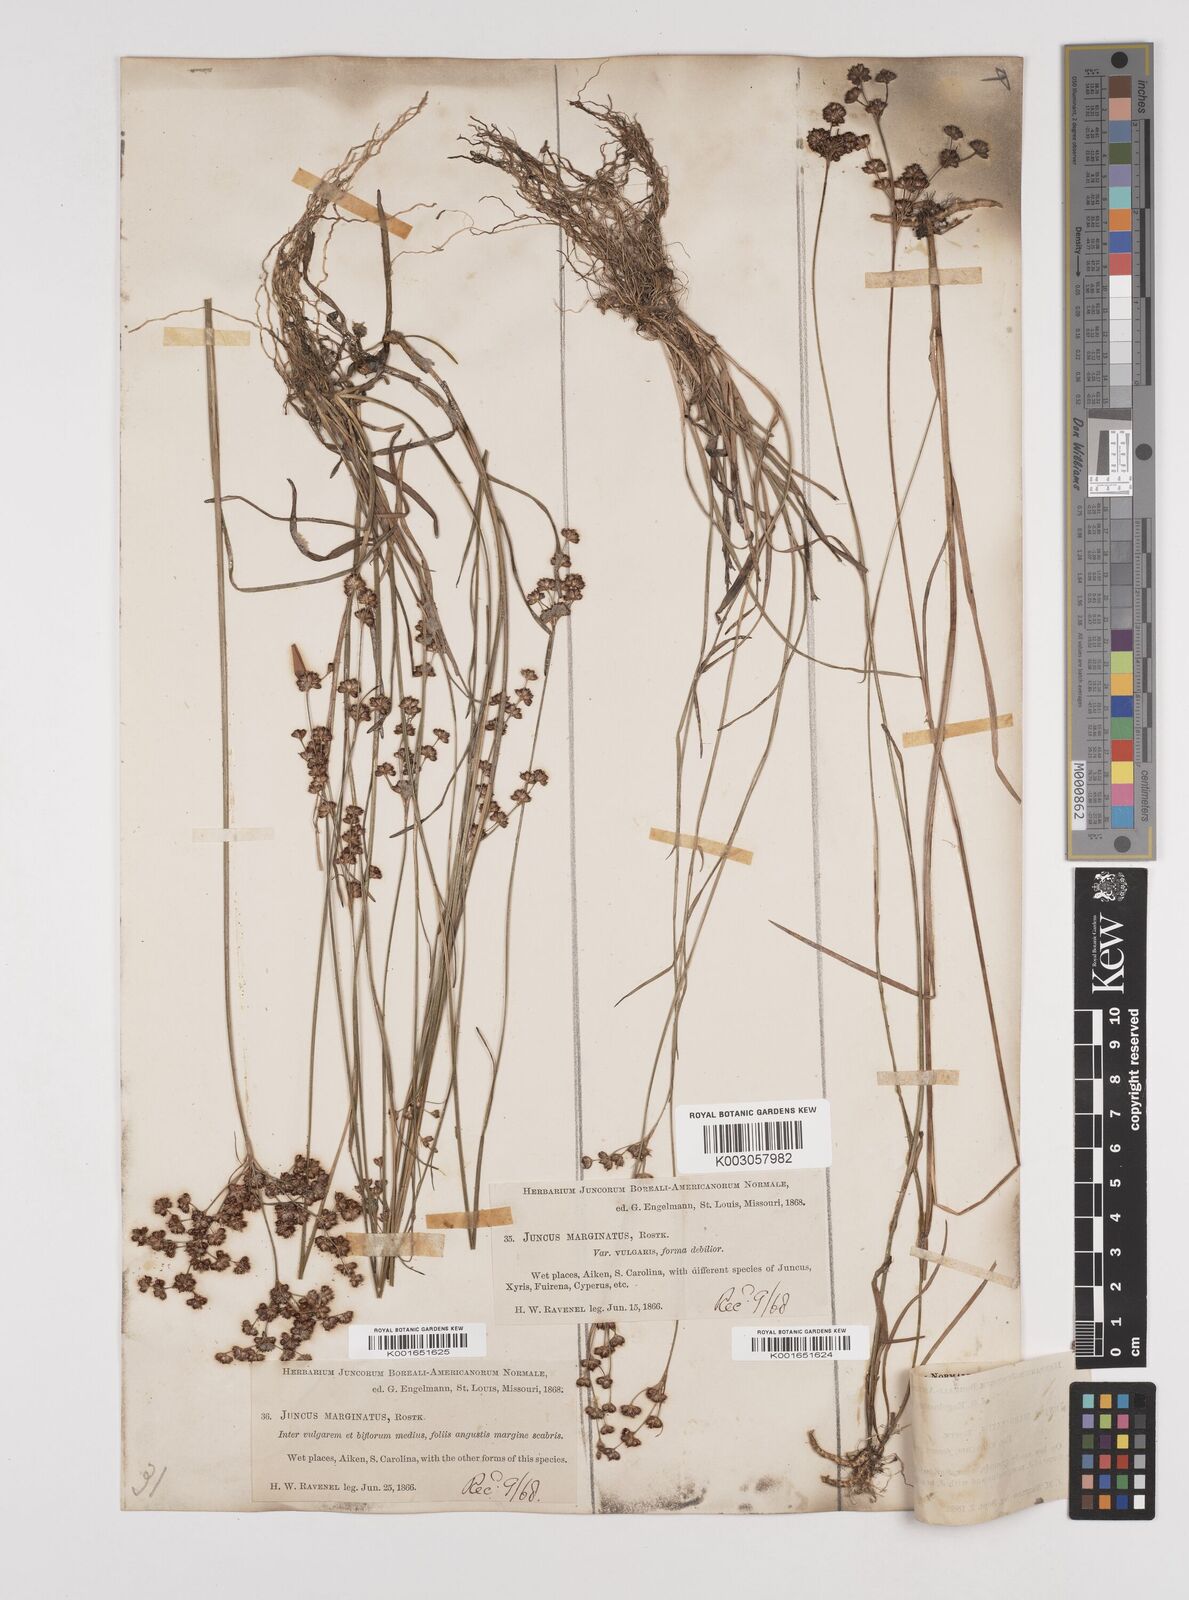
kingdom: Plantae
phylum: Tracheophyta
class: Liliopsida
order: Poales
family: Juncaceae
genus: Juncus
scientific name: Juncus marginatus
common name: Grass-leaf rush
